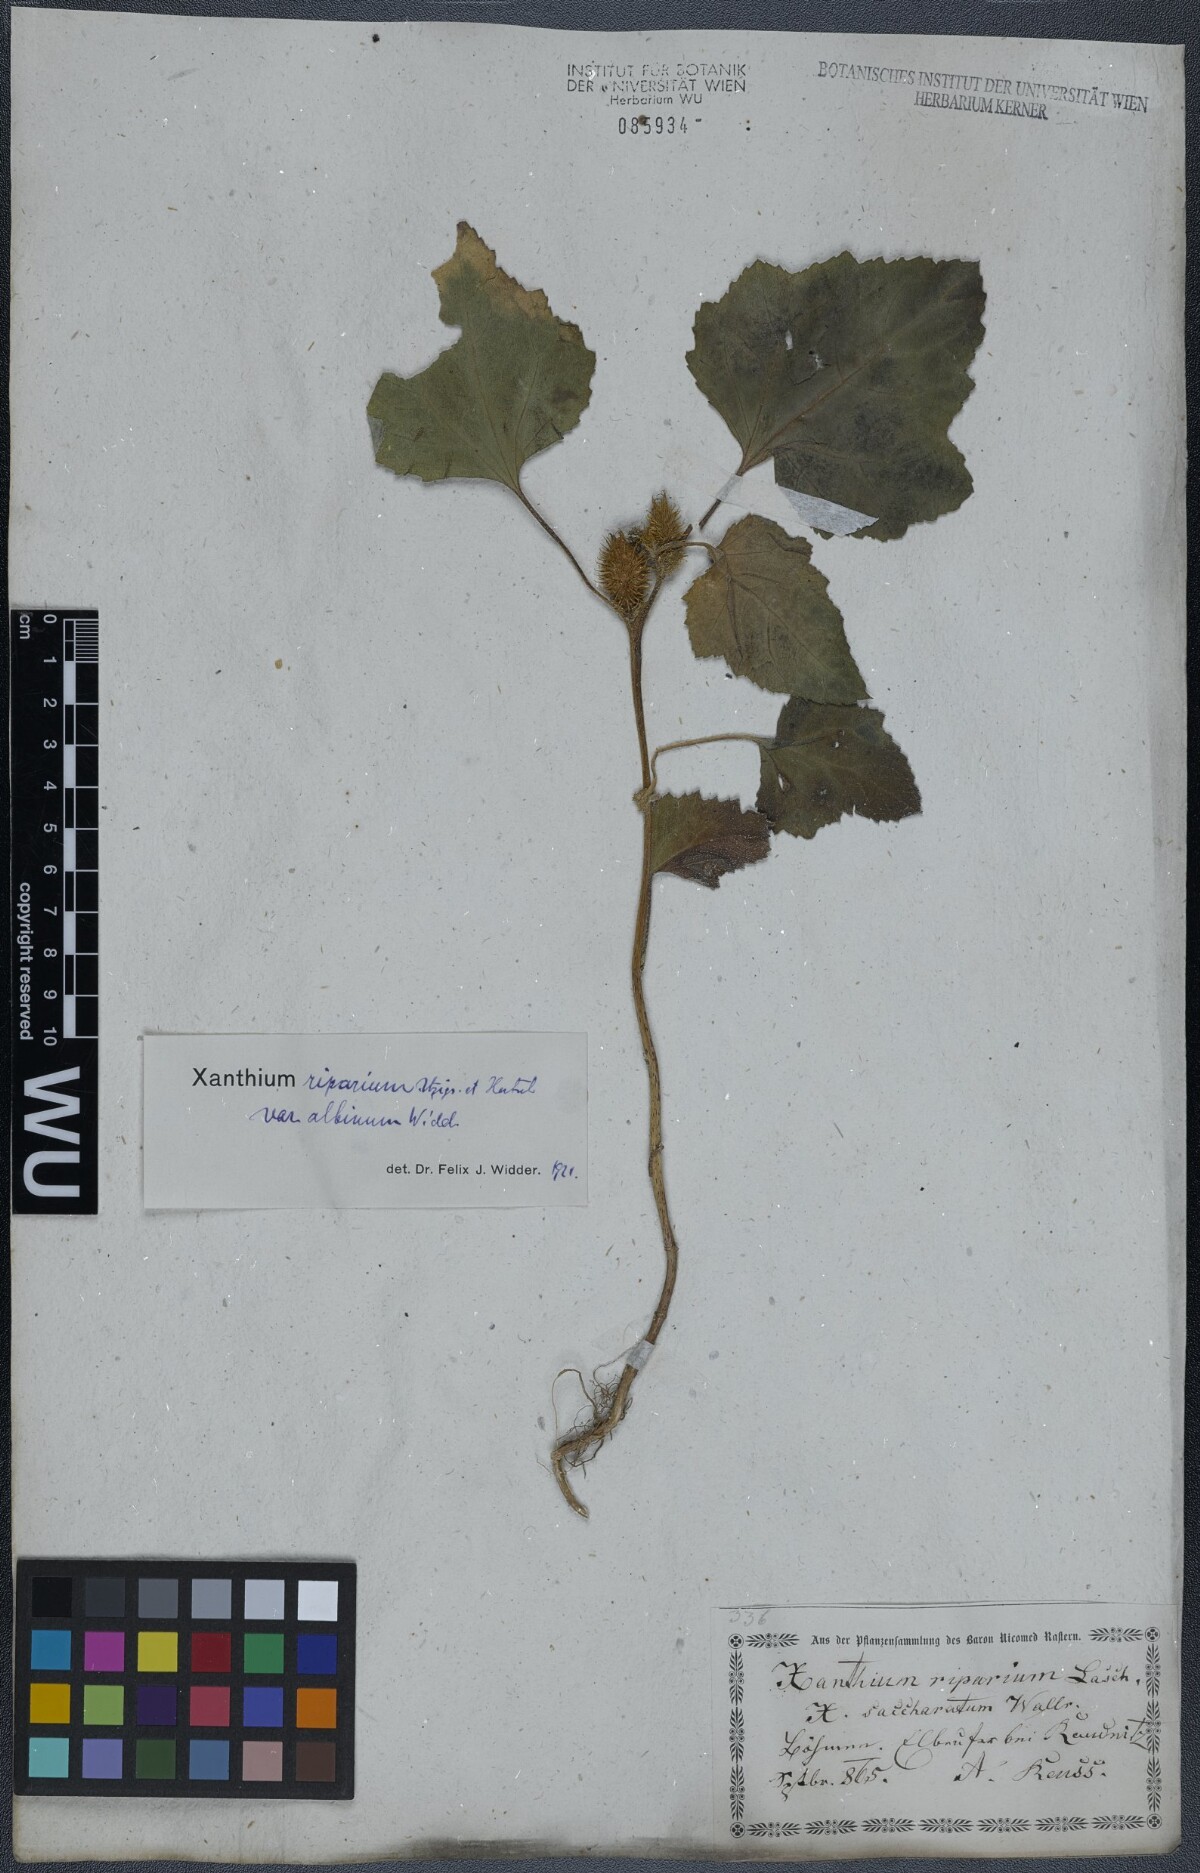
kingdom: Plantae
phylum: Tracheophyta
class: Magnoliopsida
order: Asterales
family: Asteraceae
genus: Xanthium
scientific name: Xanthium orientale
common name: Californian burr
